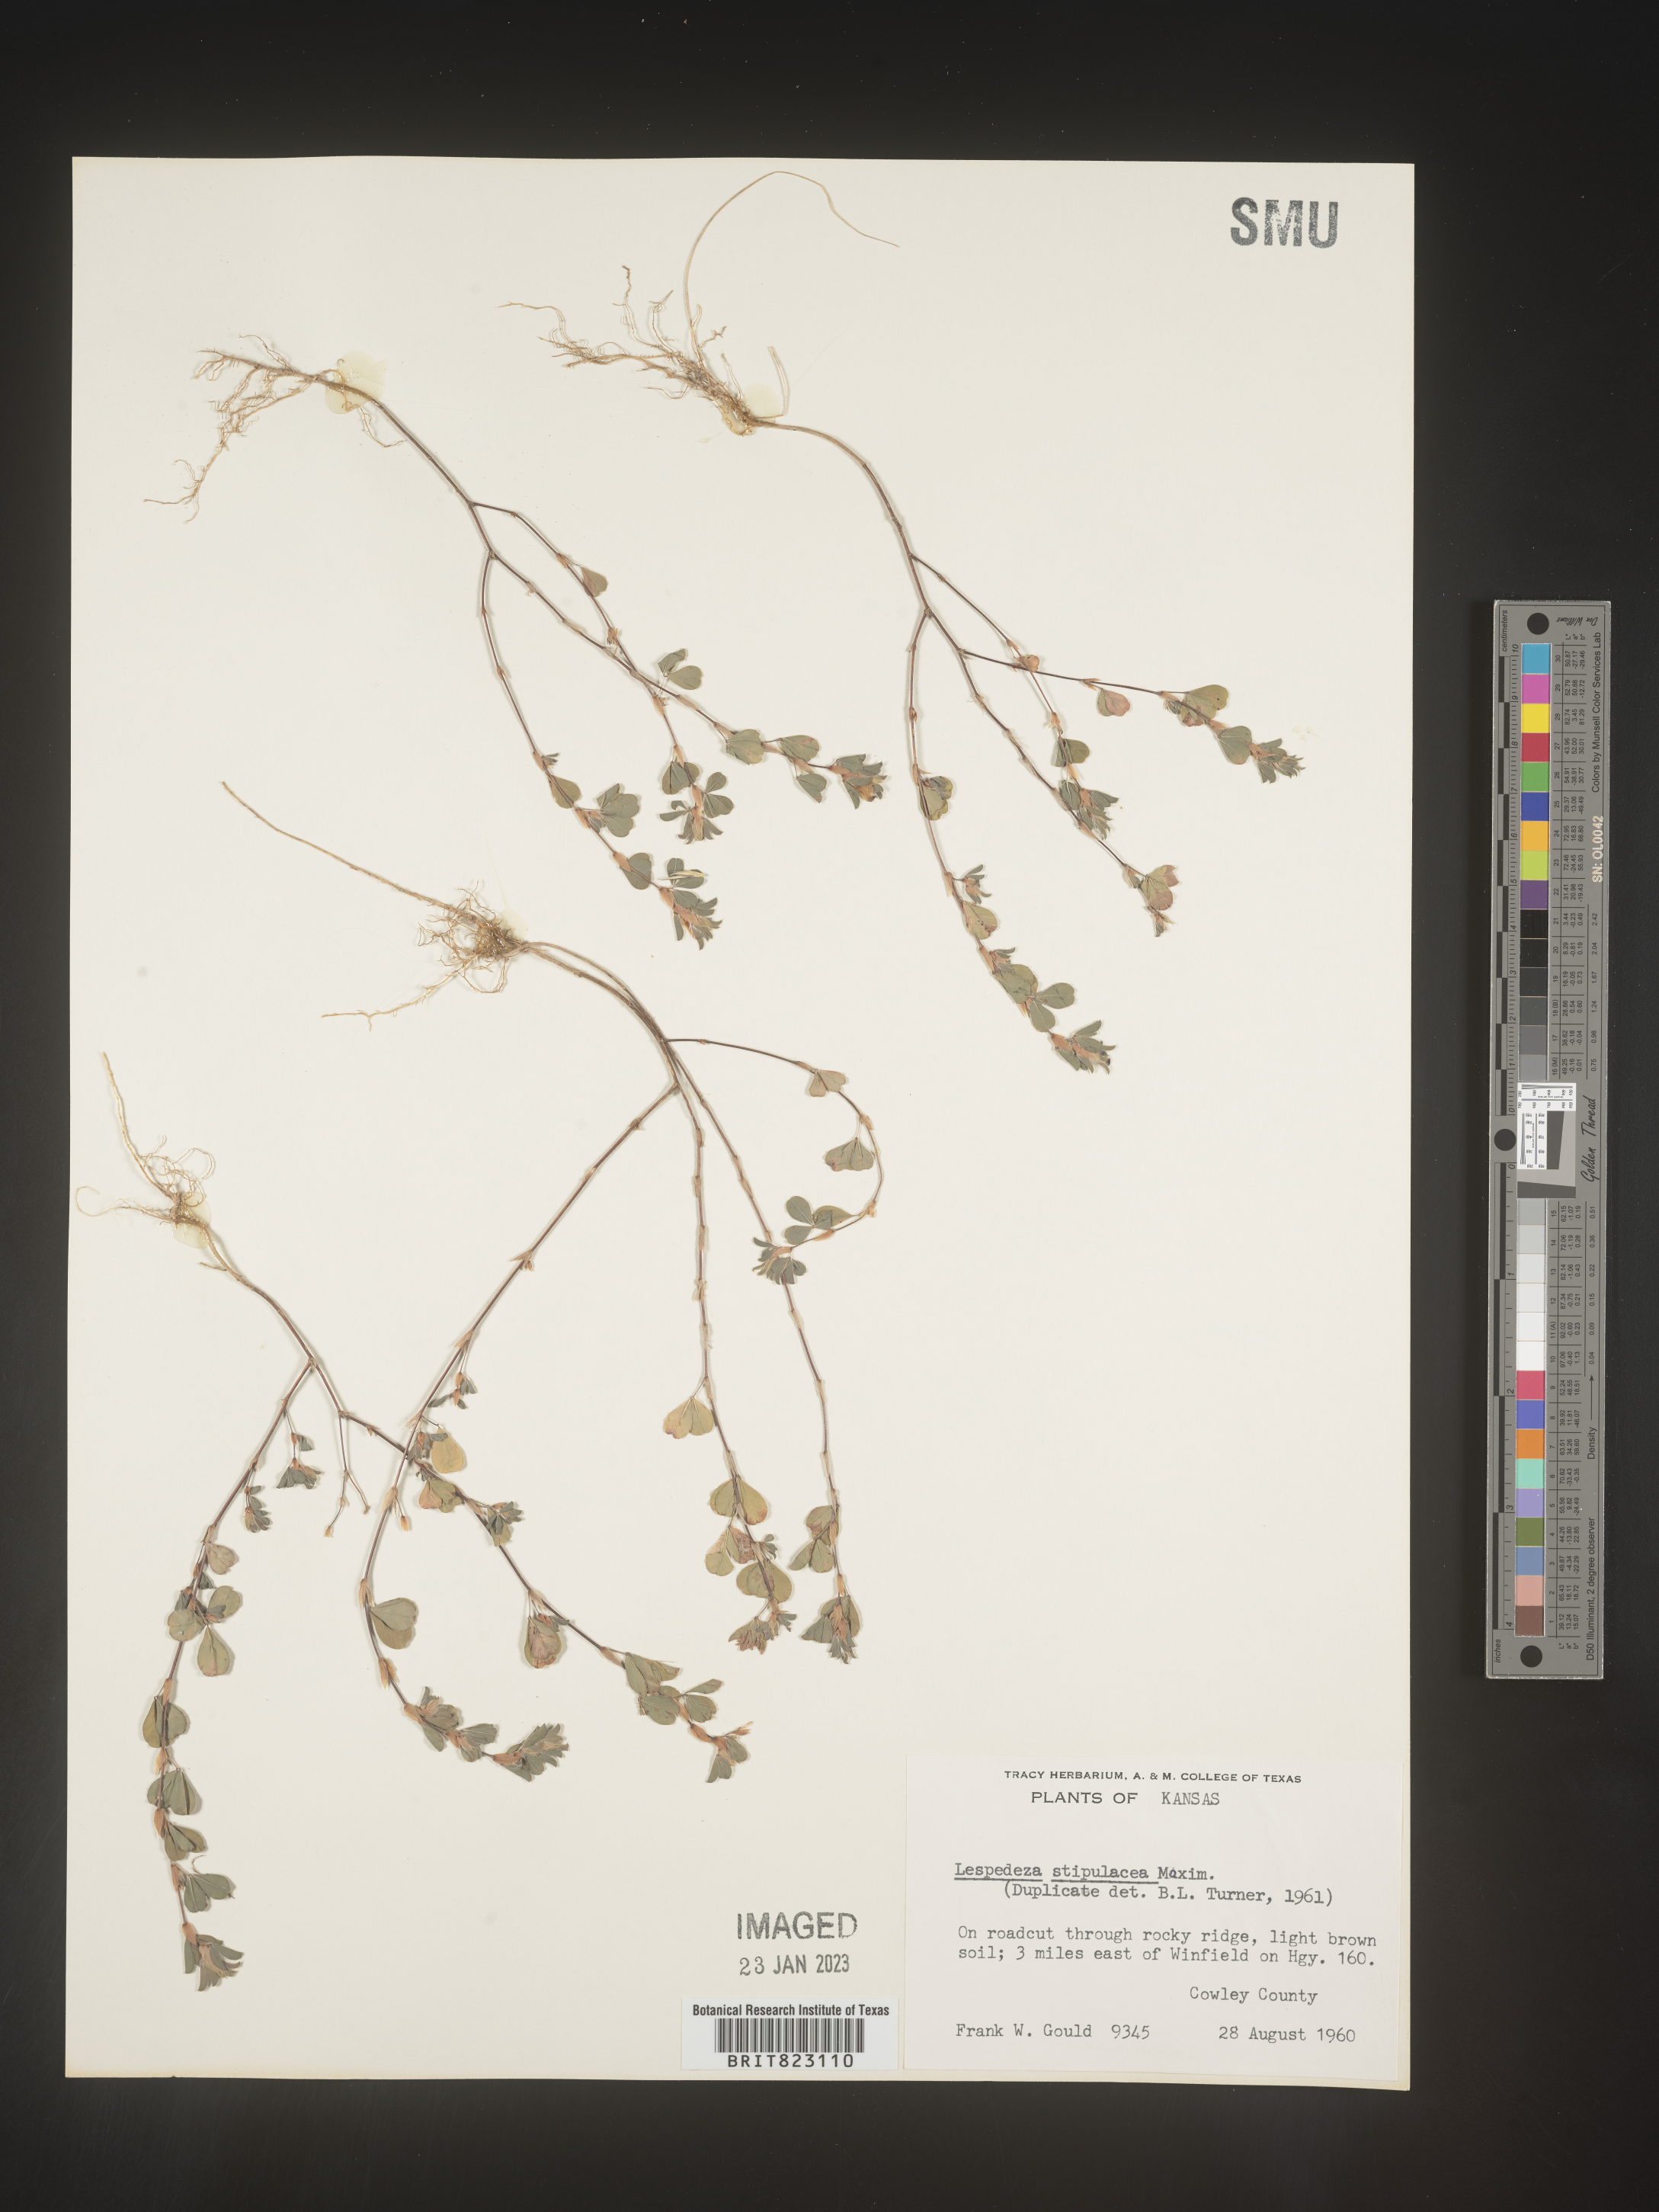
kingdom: Plantae
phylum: Tracheophyta
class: Magnoliopsida
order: Fabales
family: Fabaceae
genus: Lespedeza
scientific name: Lespedeza
